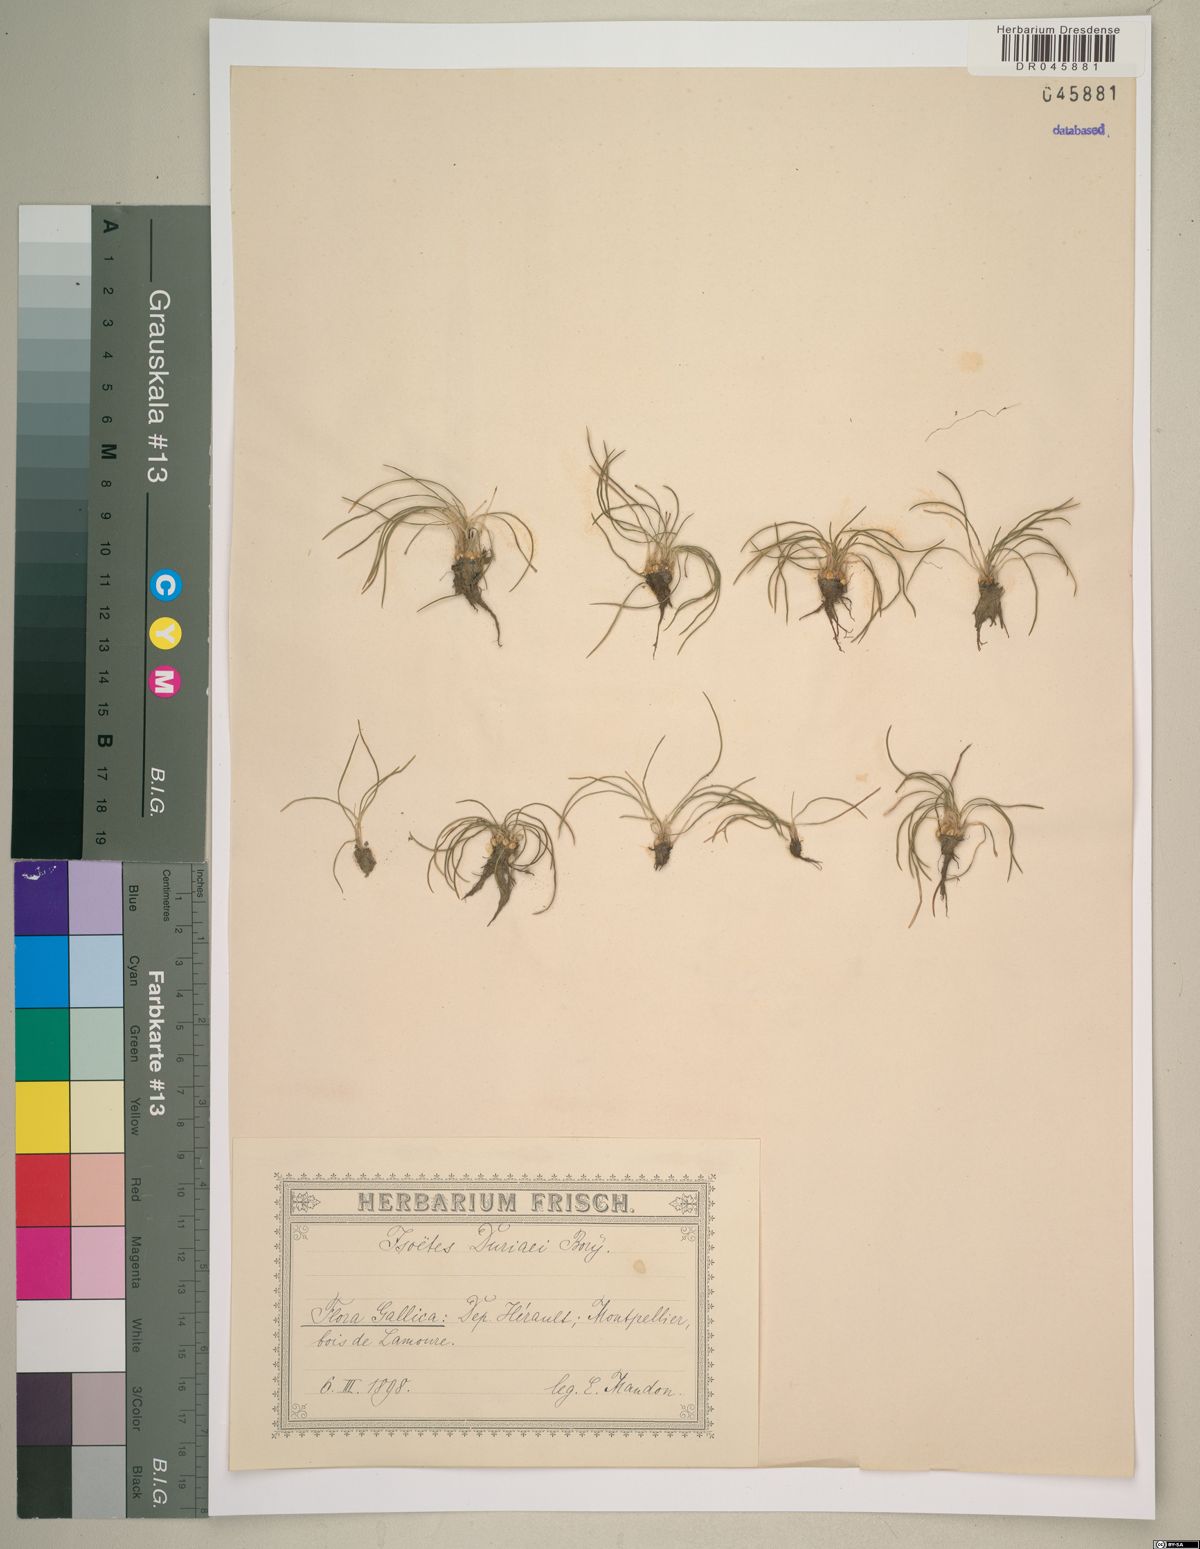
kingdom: Plantae
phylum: Tracheophyta
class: Lycopodiopsida
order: Isoetales
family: Isoetaceae
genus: Isoetes
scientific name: Isoetes duriei
